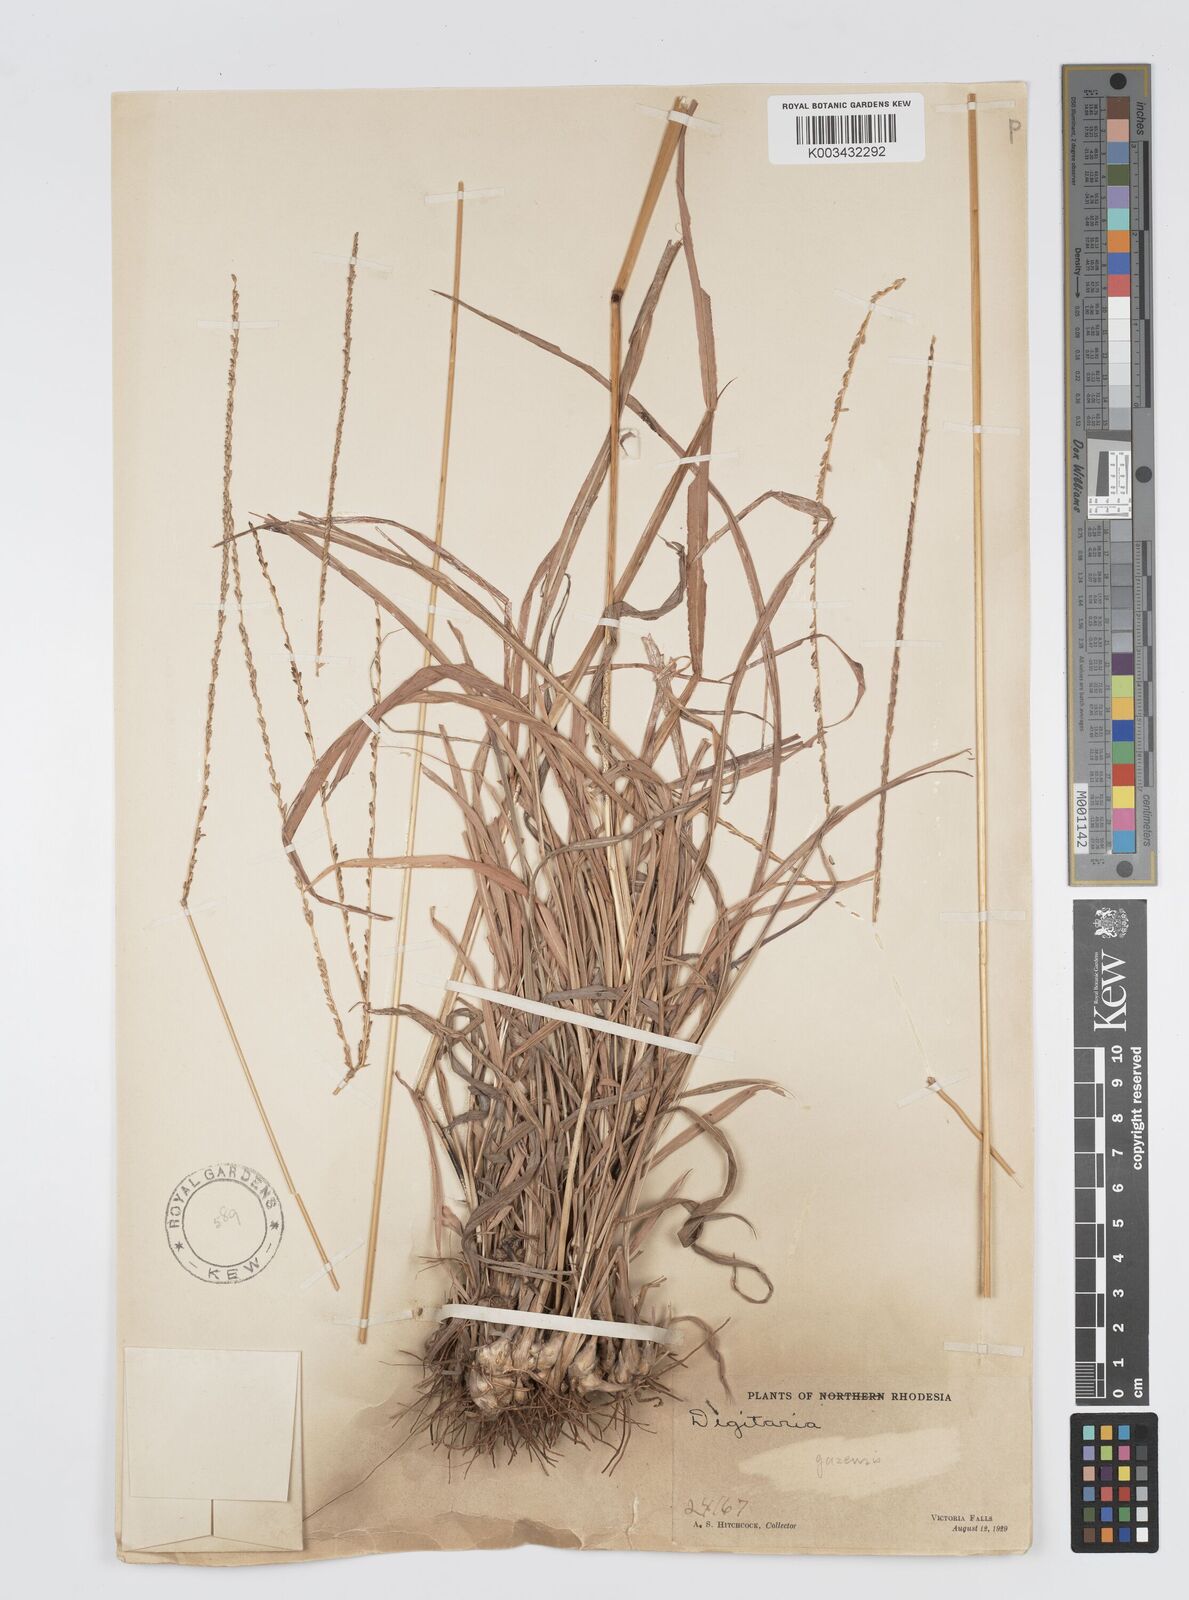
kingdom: Plantae
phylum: Tracheophyta
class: Liliopsida
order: Poales
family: Poaceae
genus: Digitaria
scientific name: Digitaria seriata
